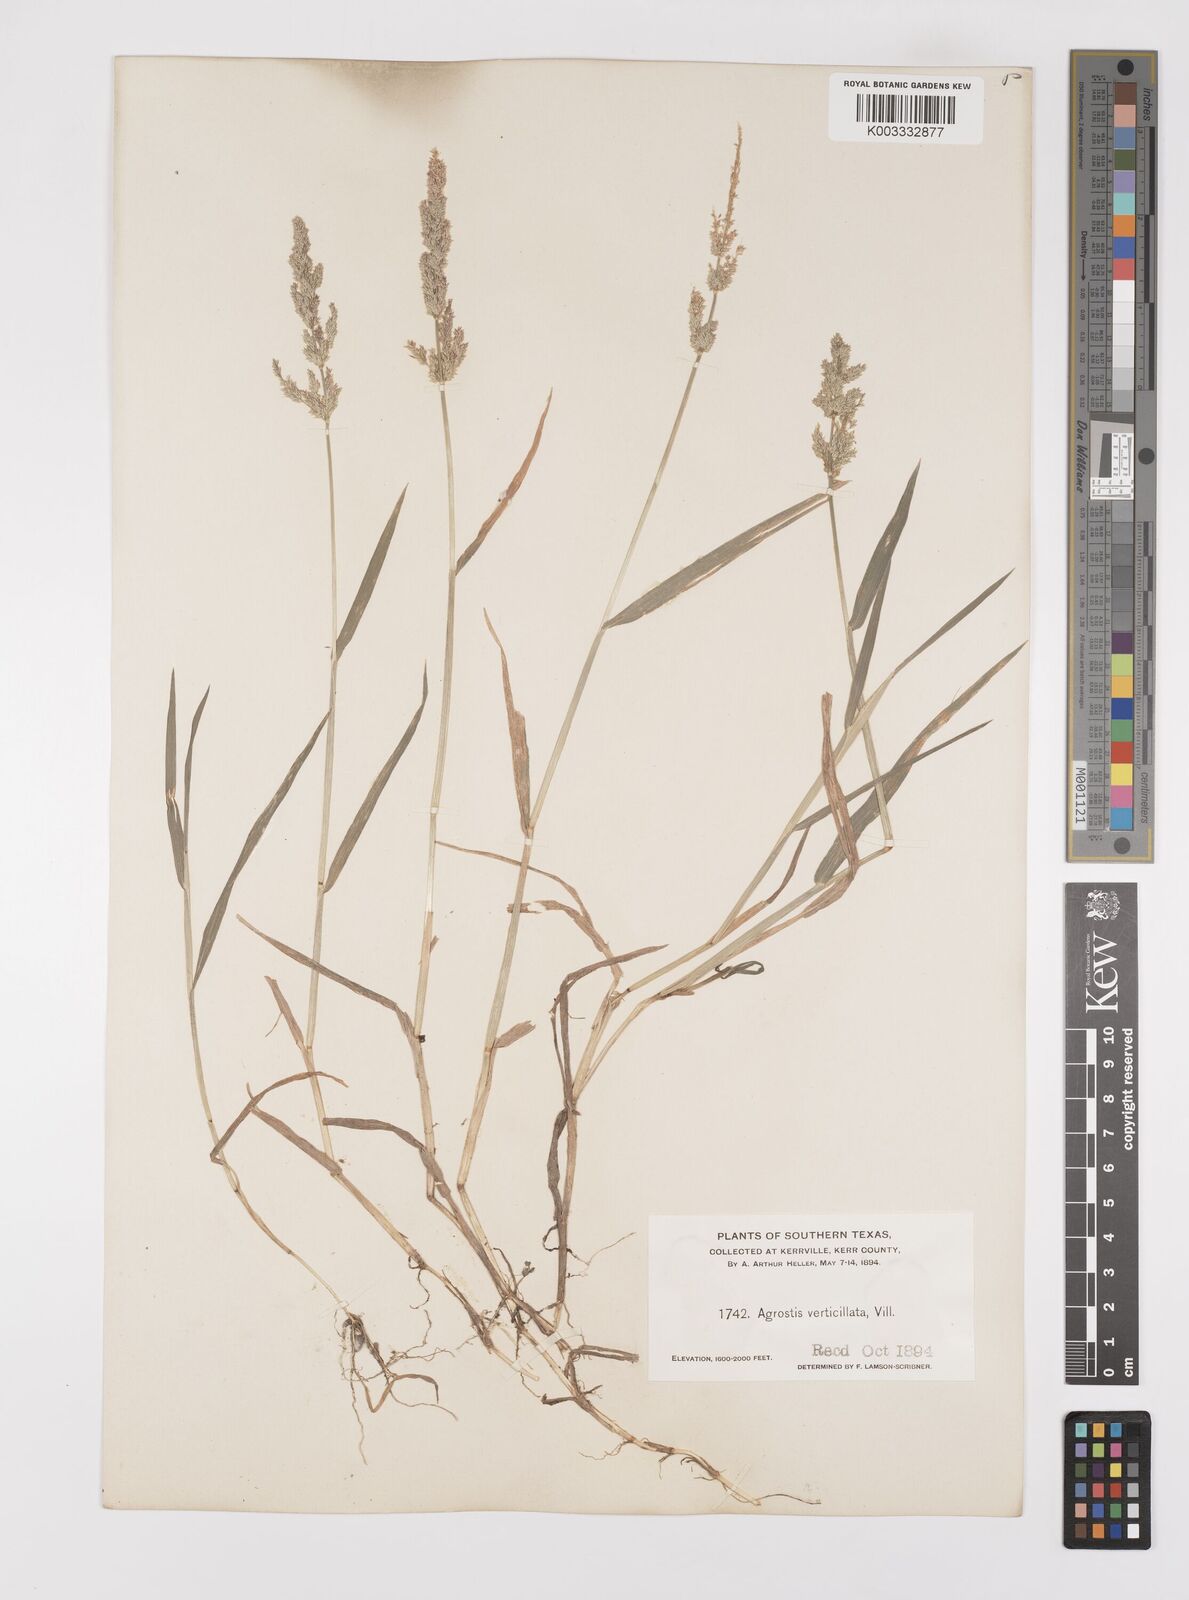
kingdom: Plantae
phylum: Tracheophyta
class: Liliopsida
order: Poales
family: Poaceae
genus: Polypogon
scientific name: Polypogon viridis
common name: Water bent
